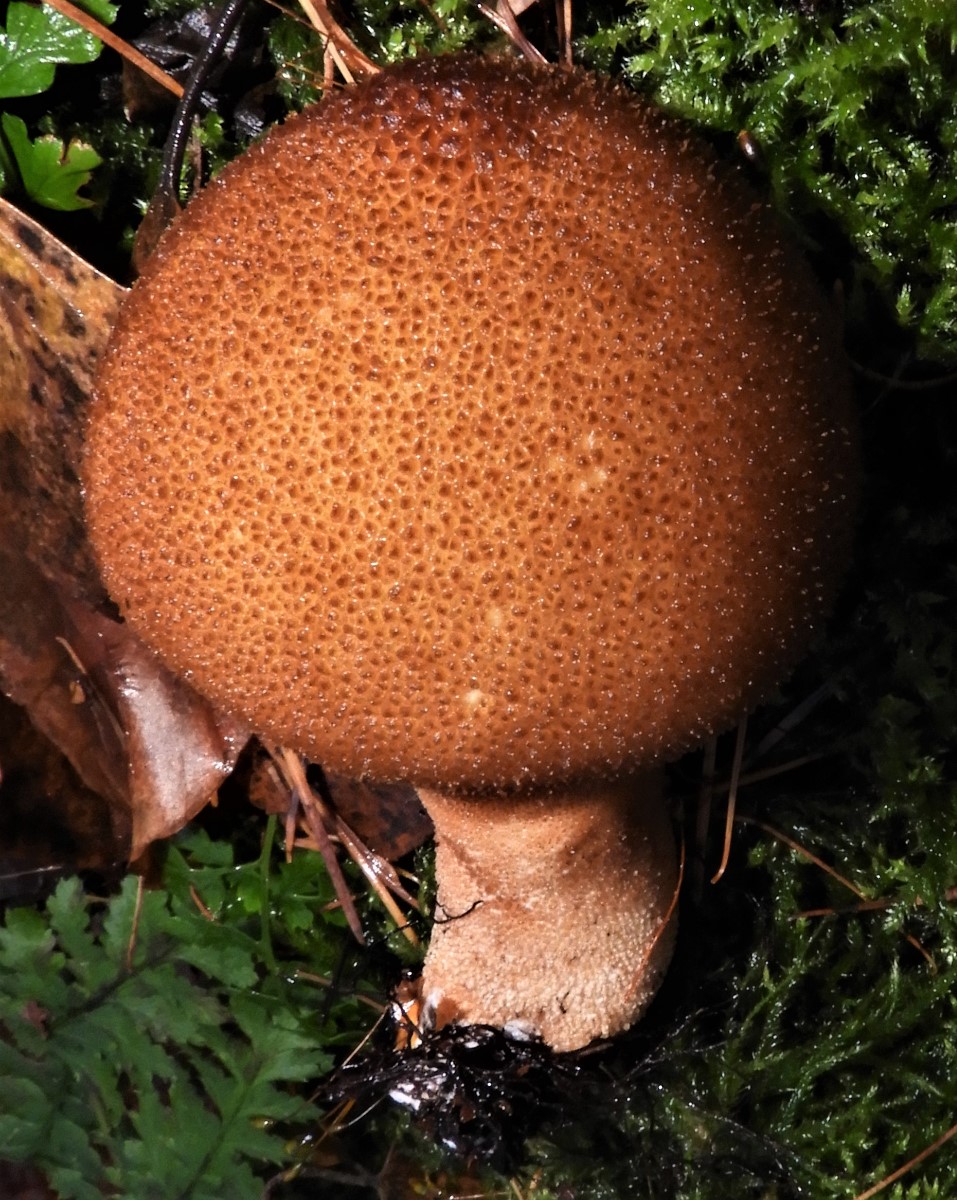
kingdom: Fungi
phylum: Basidiomycota
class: Agaricomycetes
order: Agaricales
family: Lycoperdaceae
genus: Lycoperdon
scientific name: Lycoperdon nigrescens
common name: sortagtig støvbold
